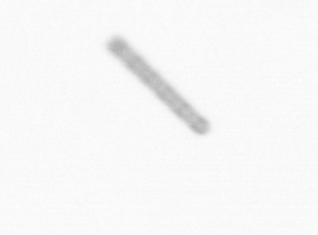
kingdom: Chromista
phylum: Ochrophyta
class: Bacillariophyceae
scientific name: Bacillariophyceae
